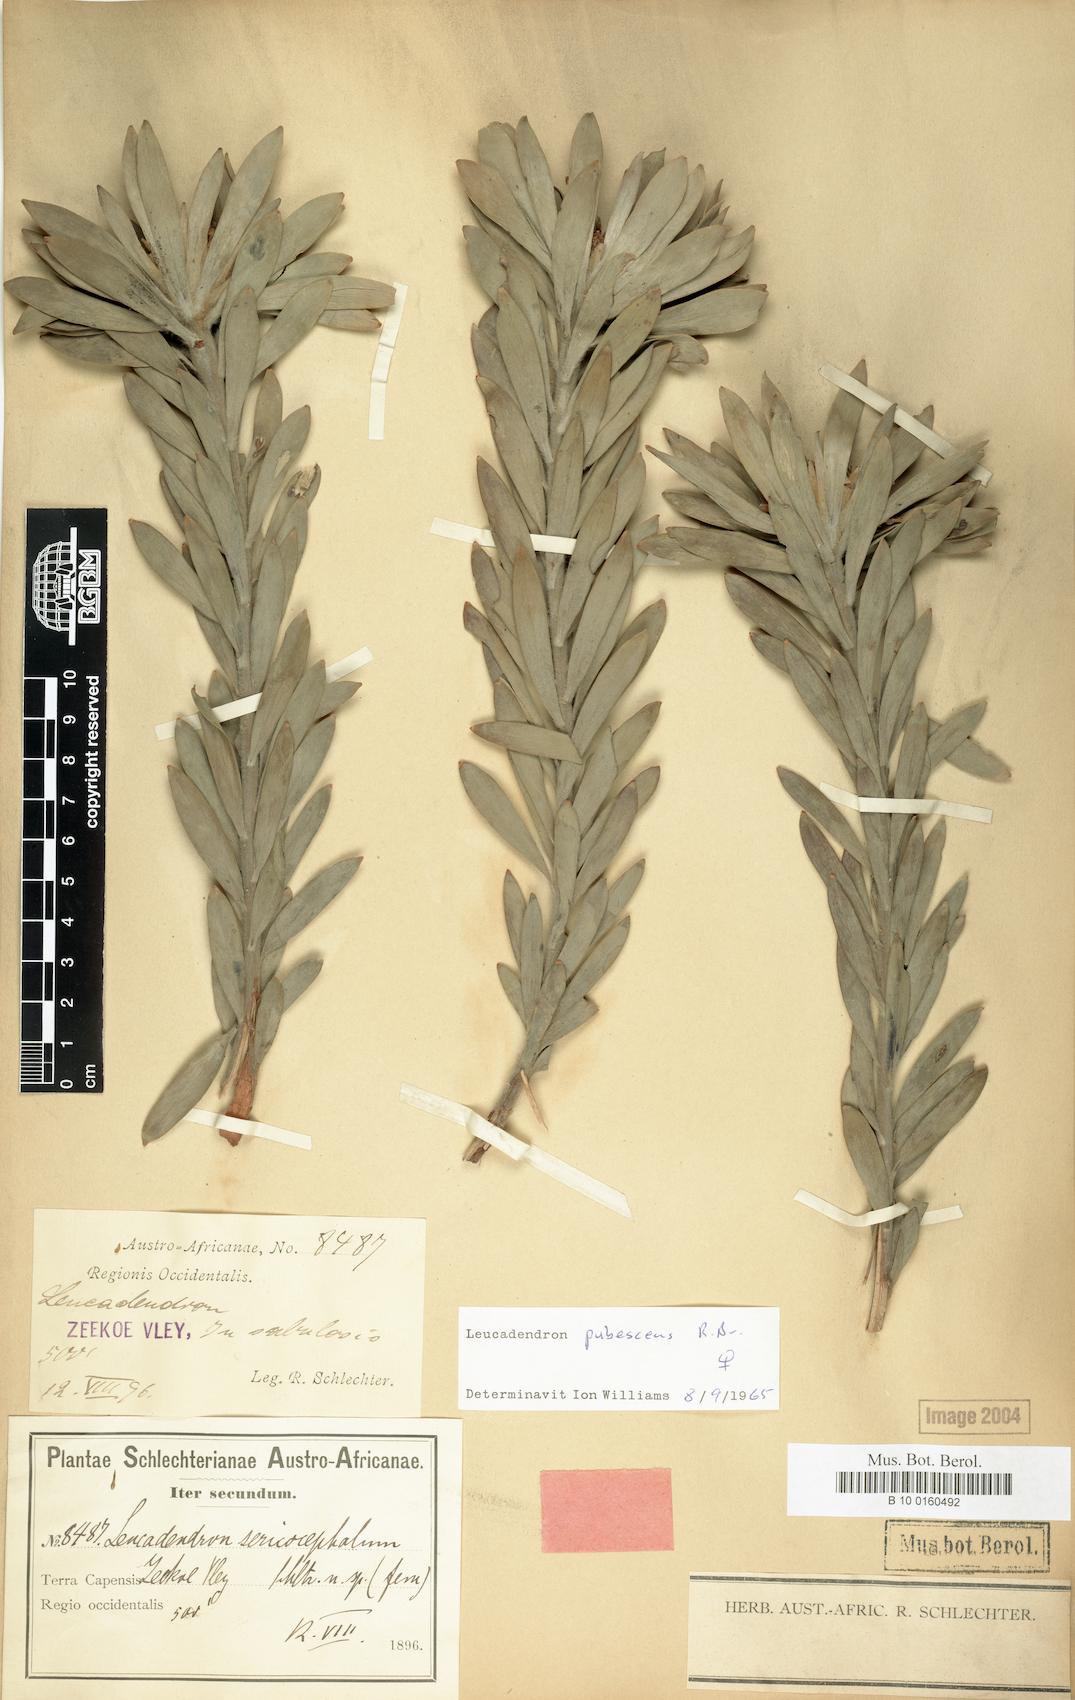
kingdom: Plantae
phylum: Tracheophyta
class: Magnoliopsida
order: Proteales
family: Proteaceae
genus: Leucadendron
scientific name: Leucadendron pubescens
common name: Grey conebush
